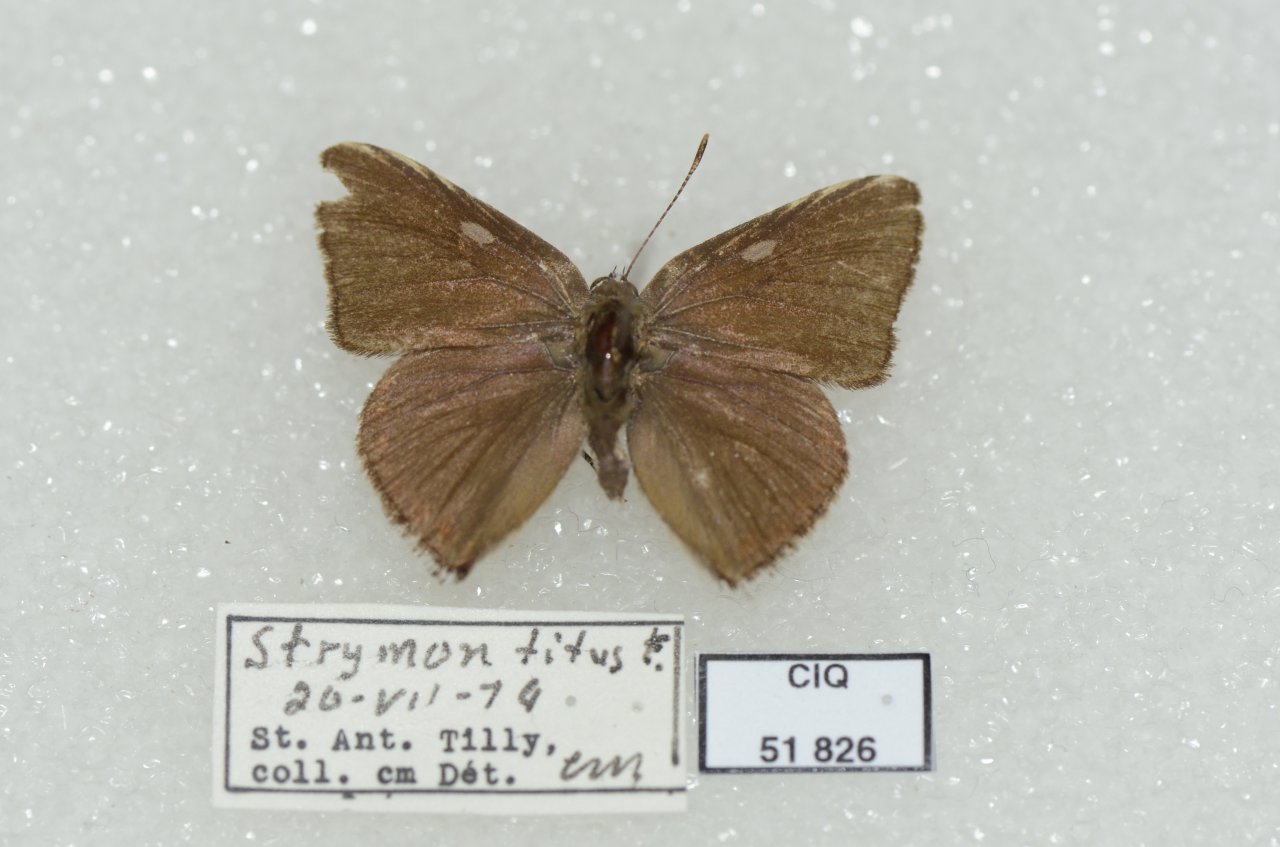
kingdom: Animalia
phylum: Arthropoda
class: Insecta
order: Lepidoptera
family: Lycaenidae
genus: Harkenclenus
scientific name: Harkenclenus titus
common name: Coral Hairstreak
